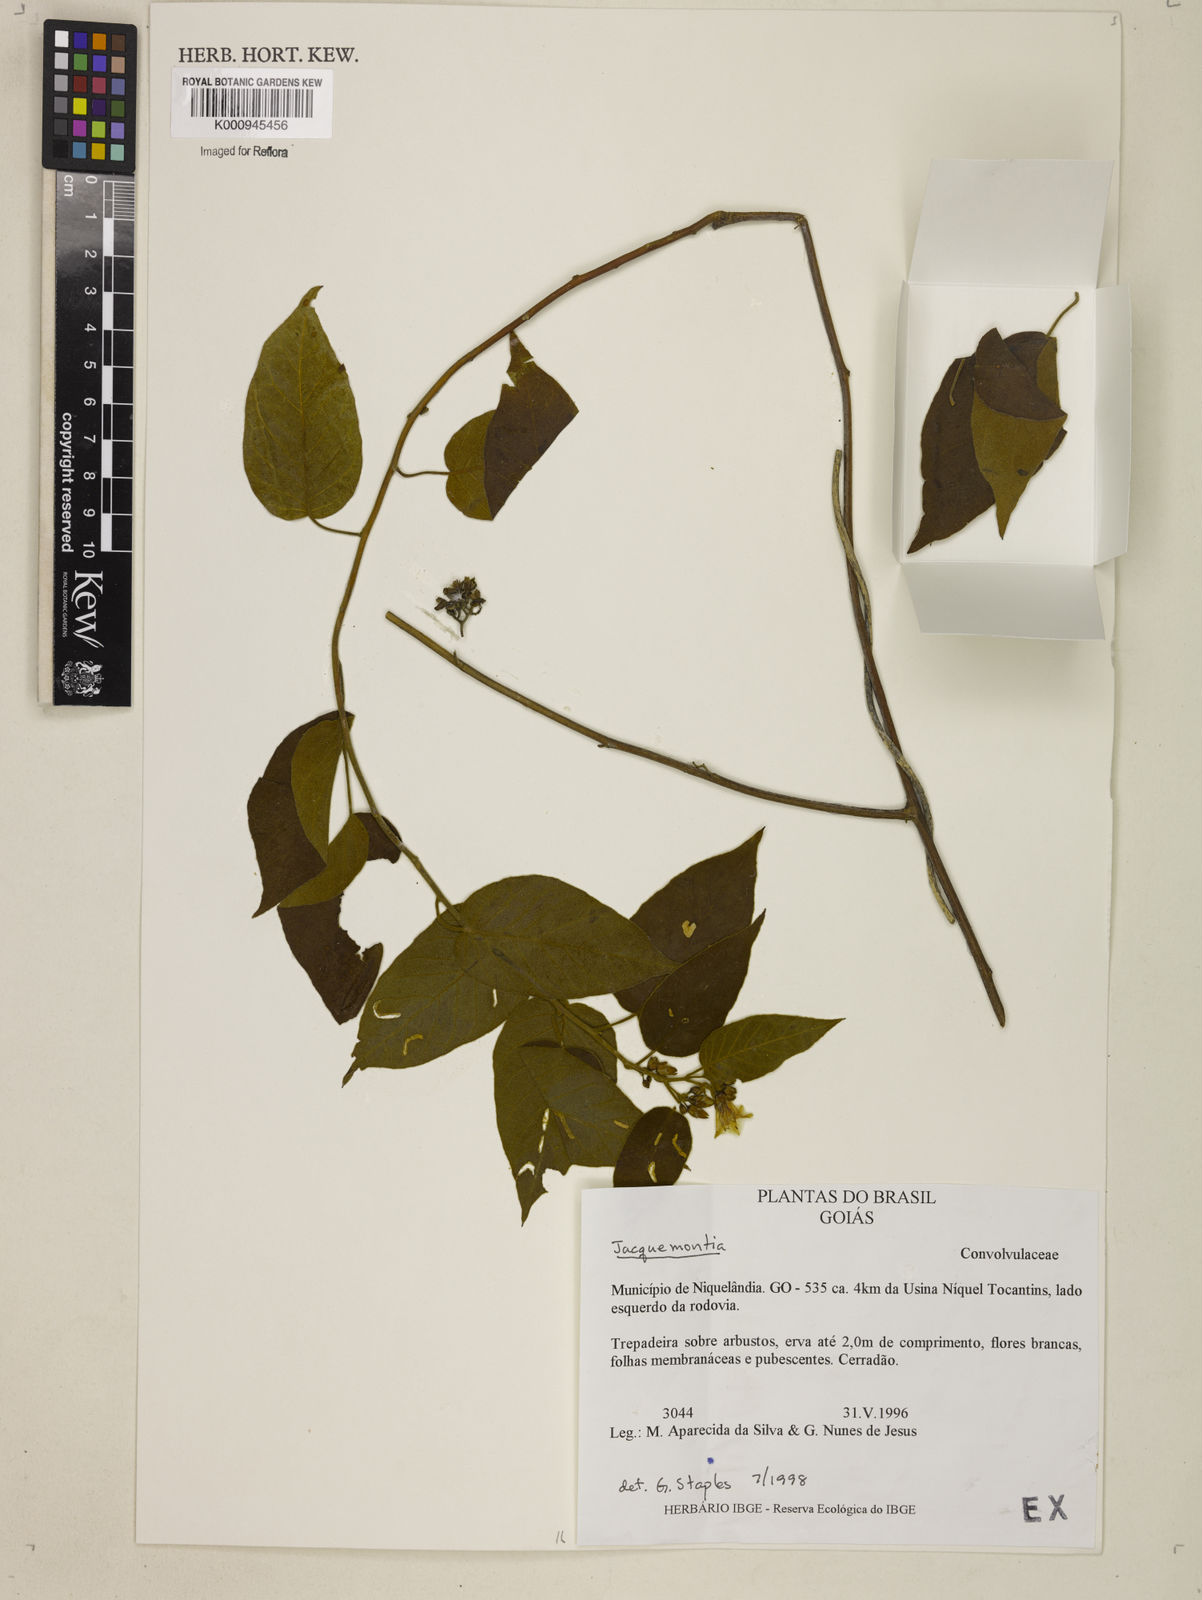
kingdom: Plantae
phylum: Tracheophyta
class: Magnoliopsida
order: Solanales
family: Convolvulaceae
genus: Jacquemontia
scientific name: Jacquemontia
